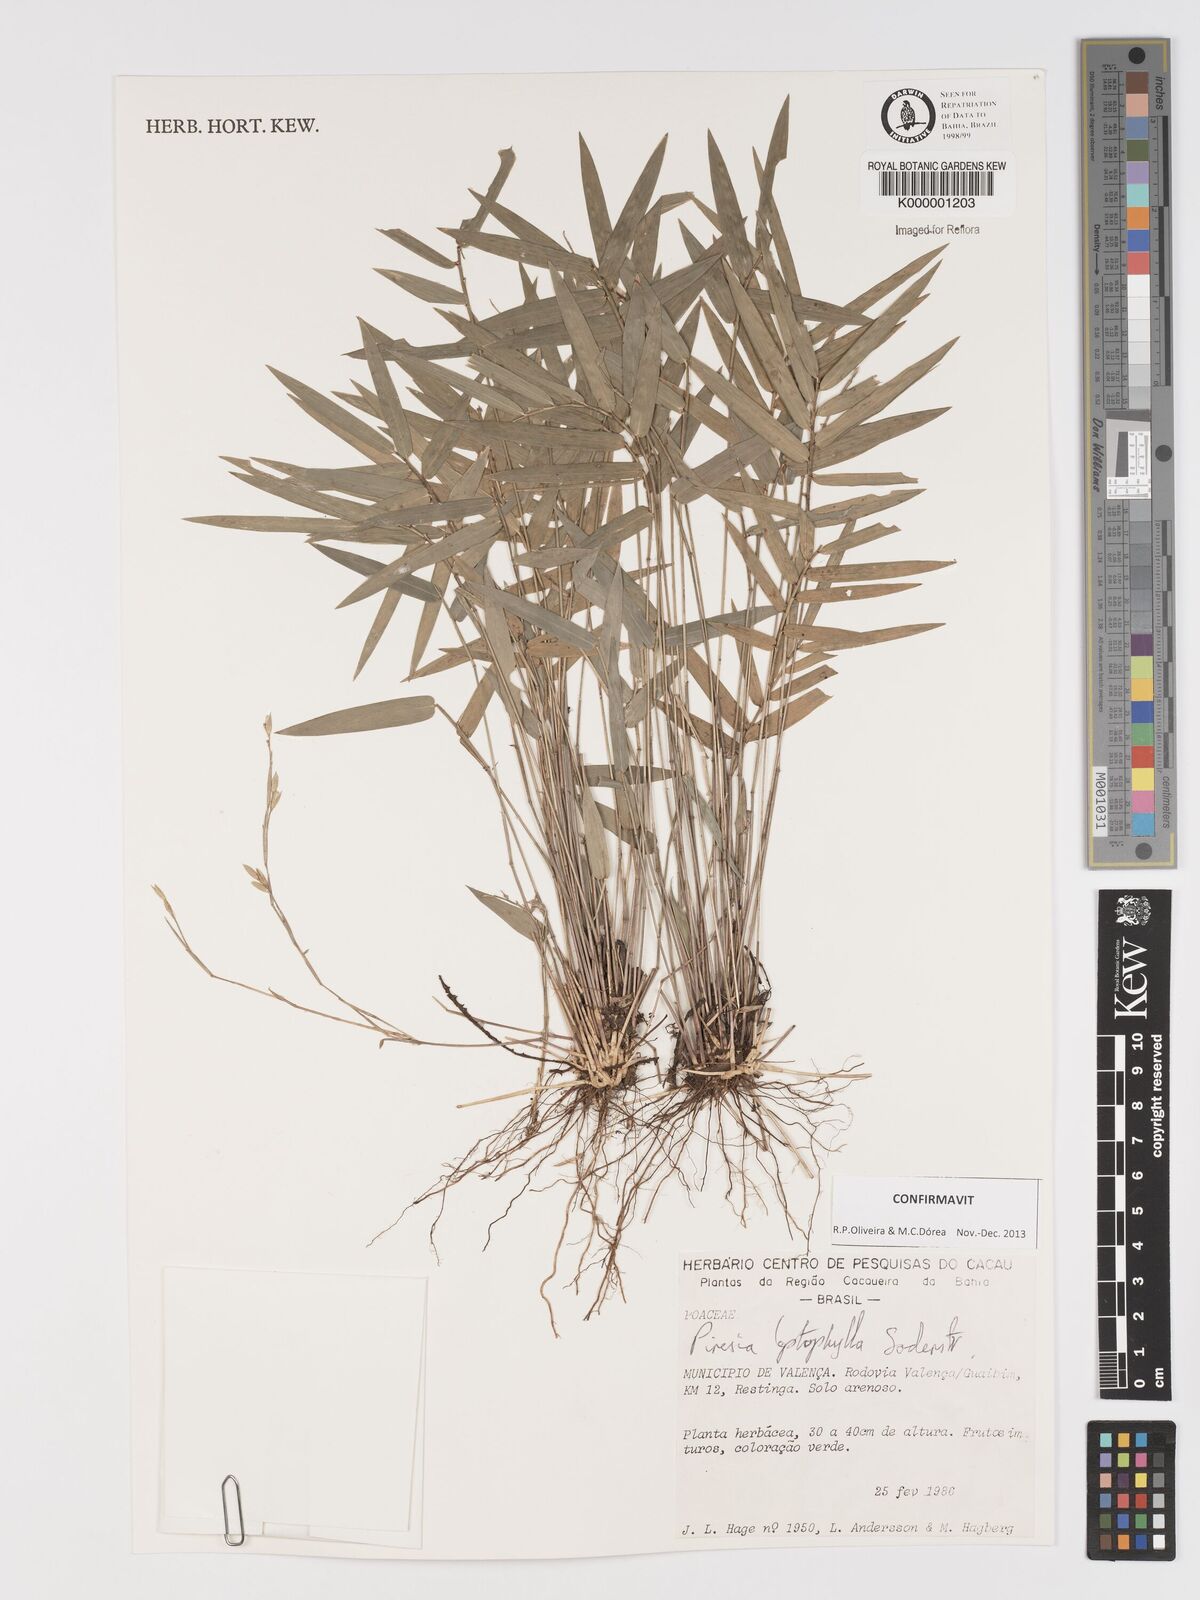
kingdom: Plantae
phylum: Tracheophyta
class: Liliopsida
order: Poales
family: Poaceae
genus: Piresia
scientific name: Piresia leptophylla
